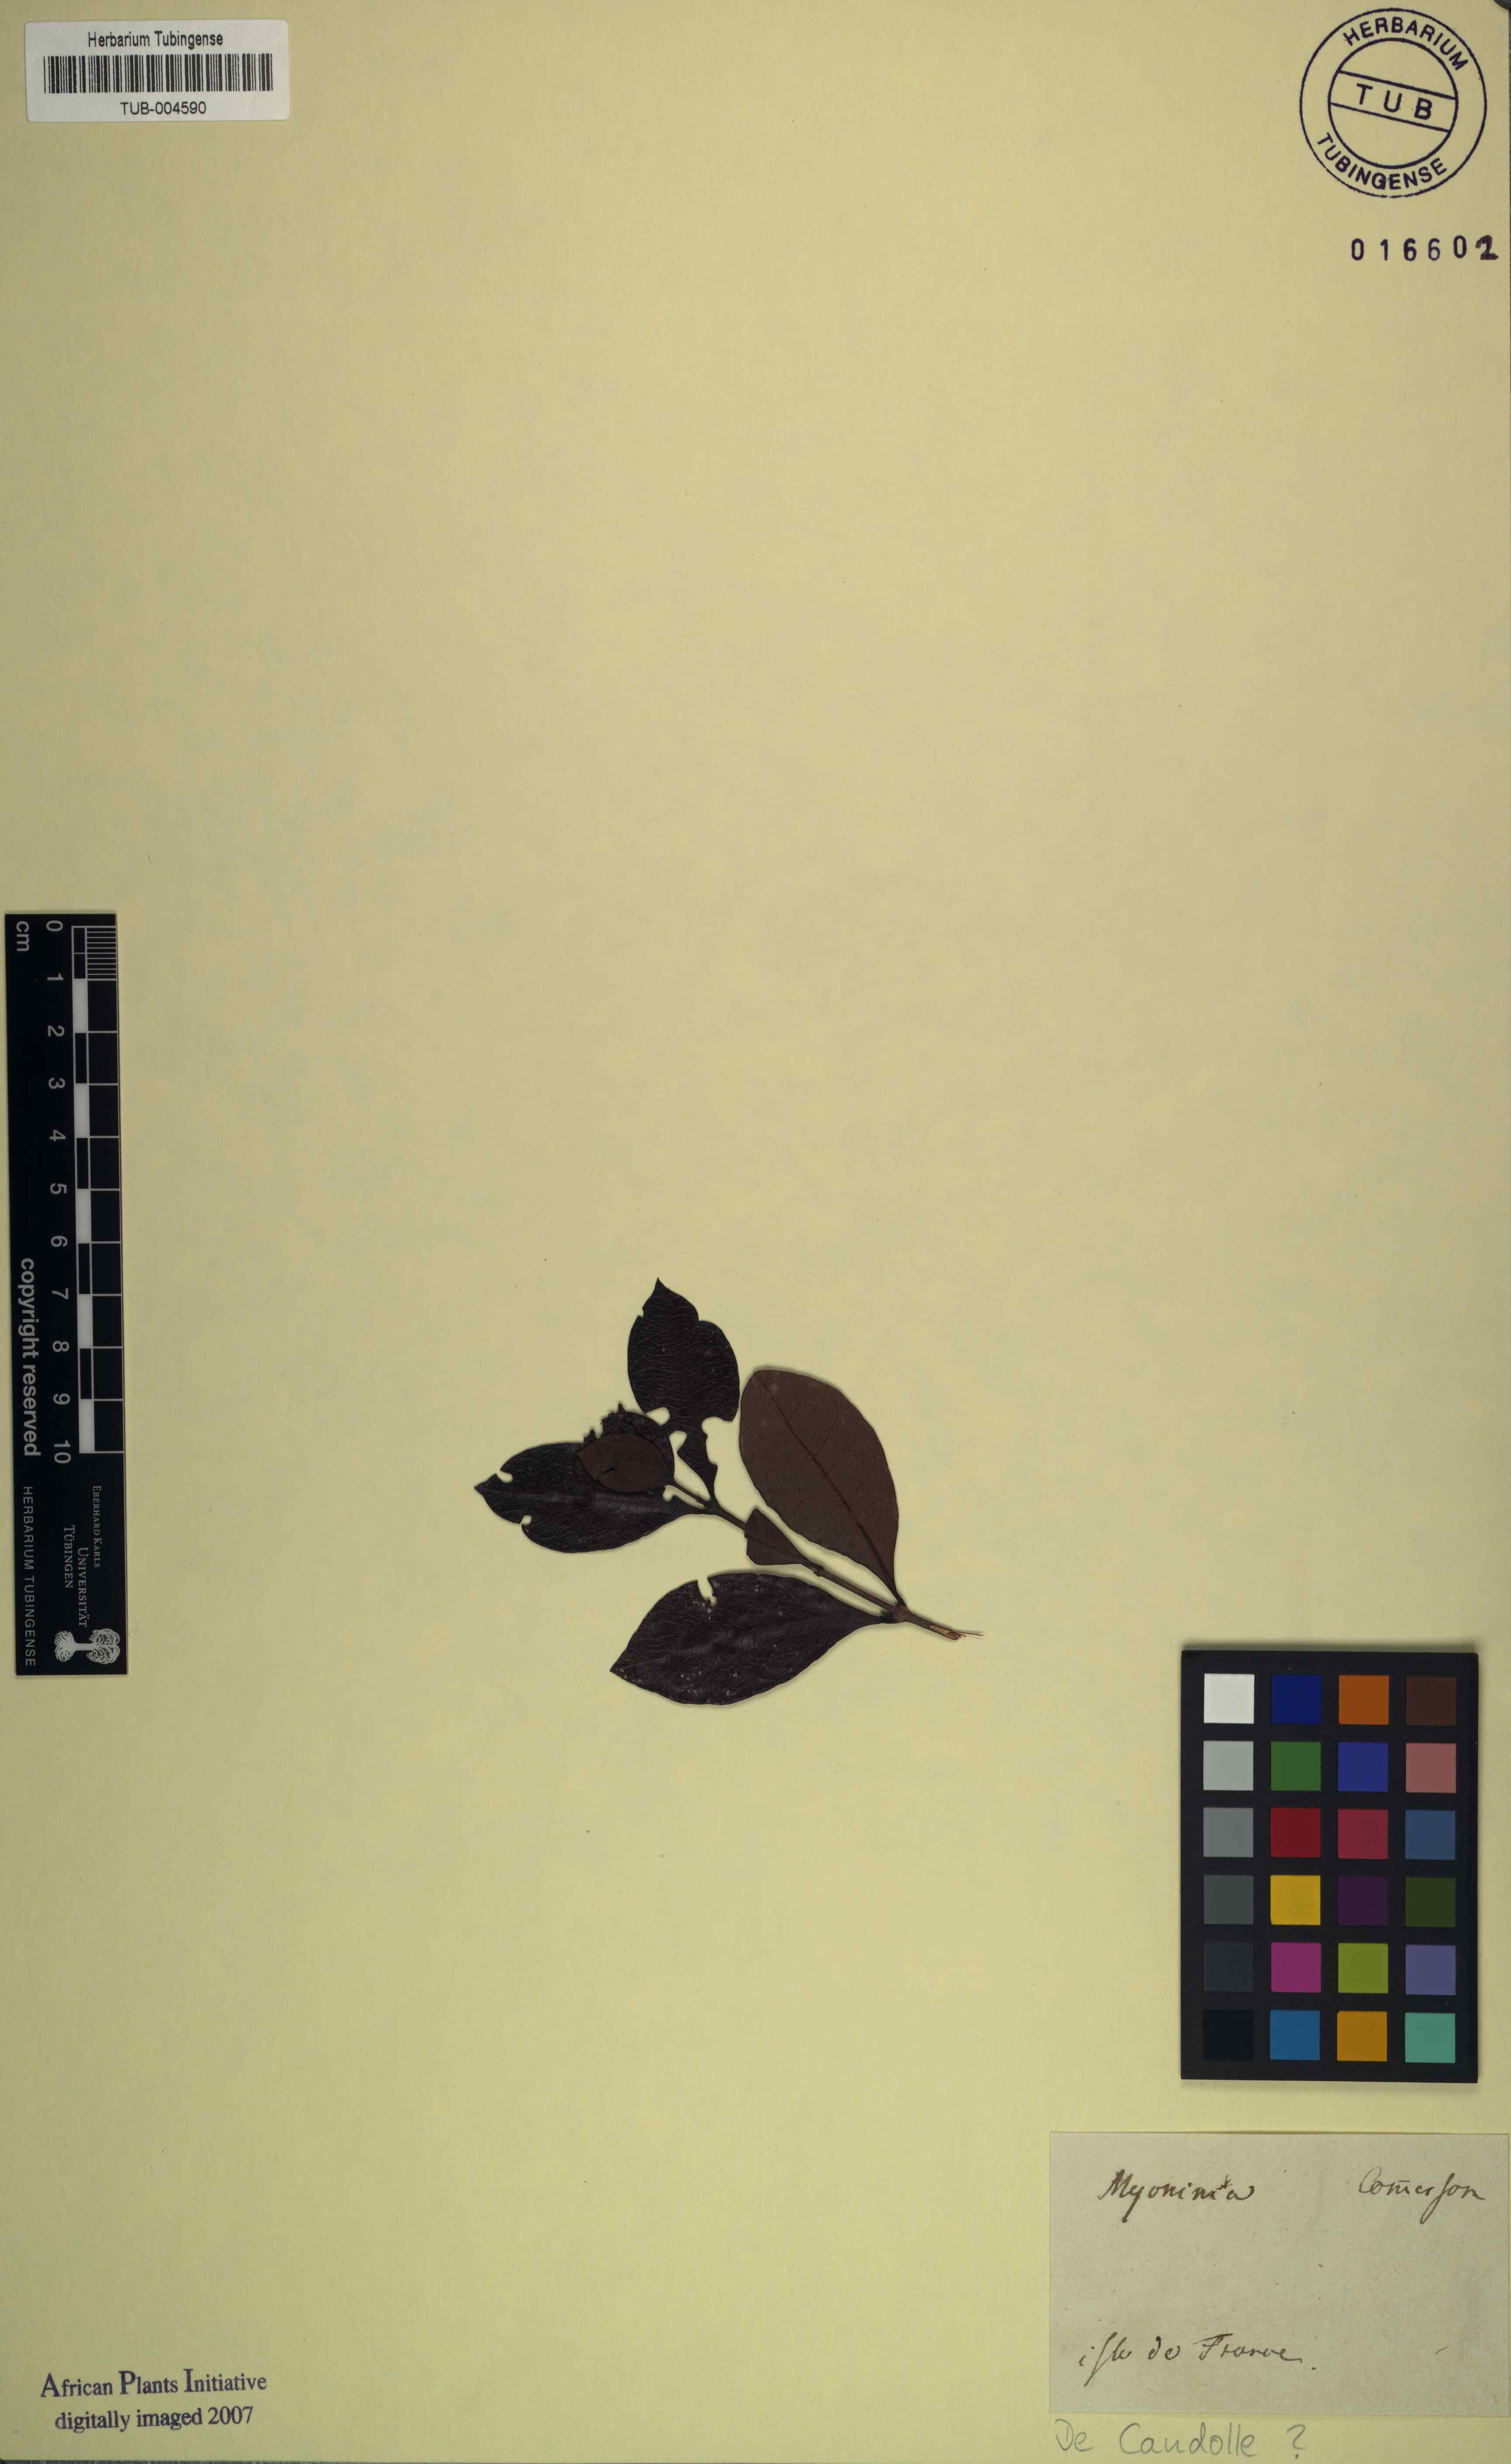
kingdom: Plantae
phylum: Tracheophyta
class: Magnoliopsida
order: Gentianales
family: Rubiaceae
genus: Ixora
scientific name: Ixora
